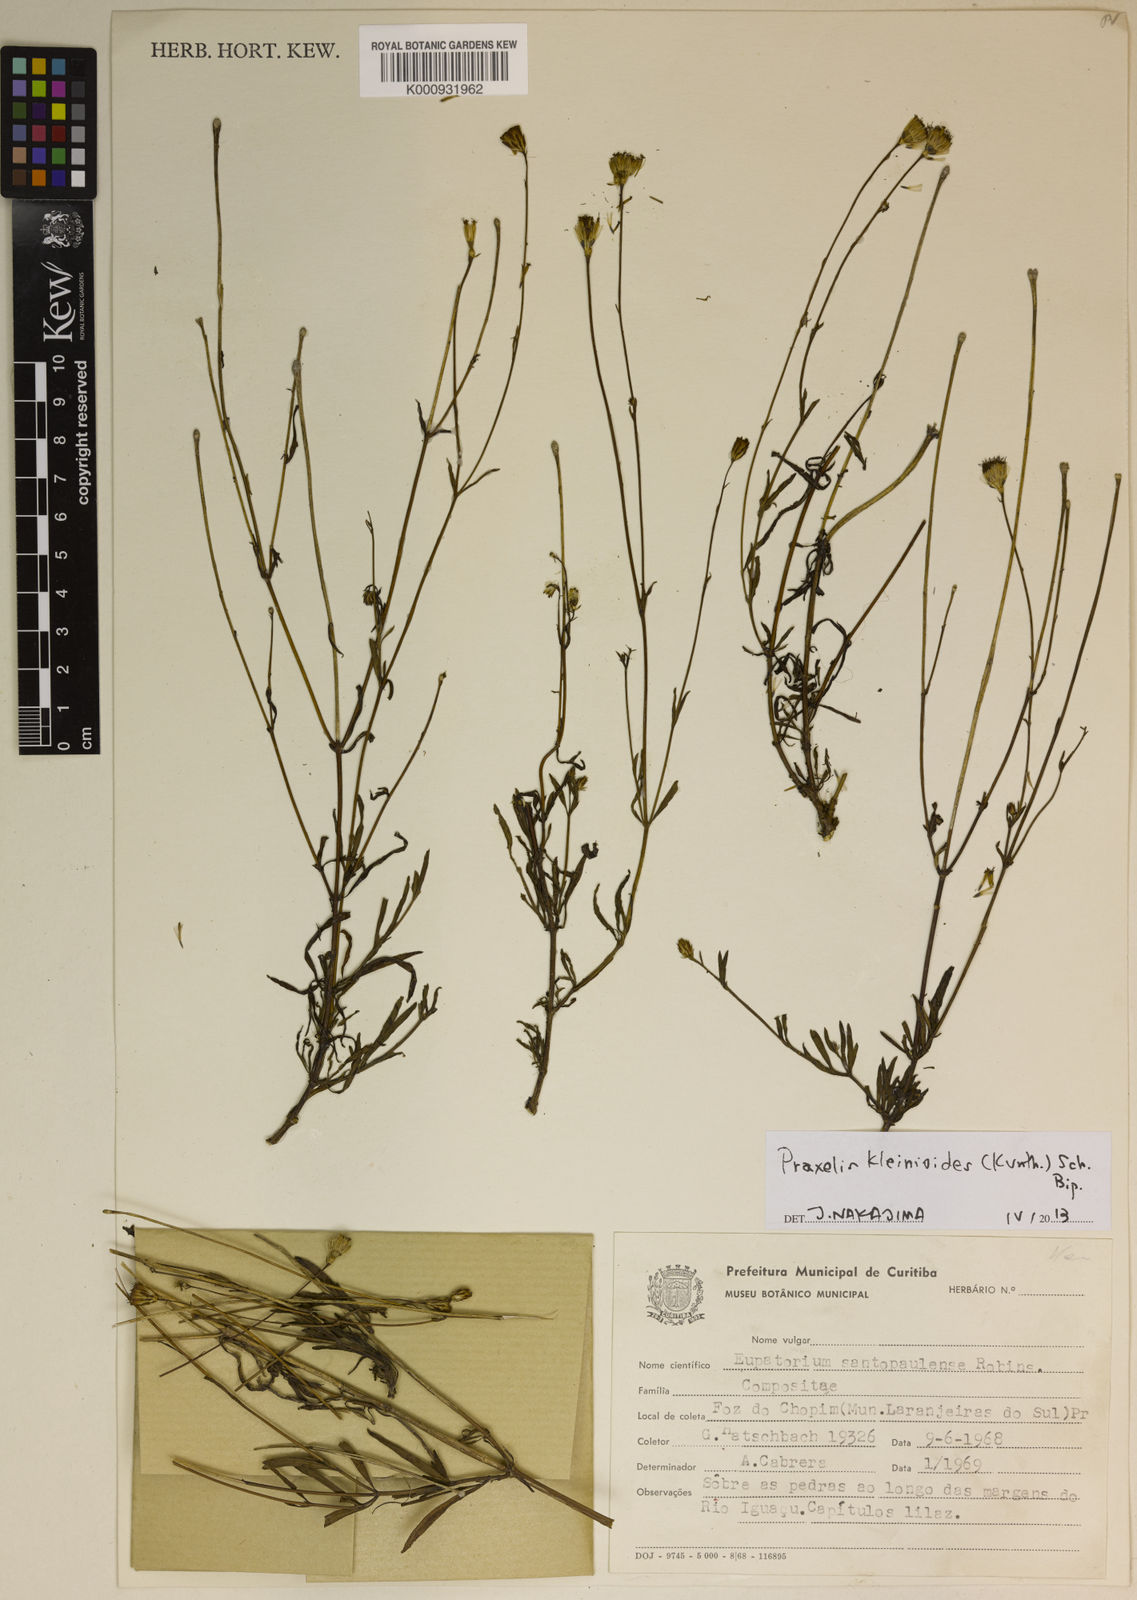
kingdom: Plantae
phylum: Tracheophyta
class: Magnoliopsida
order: Asterales
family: Asteraceae
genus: Praxelis
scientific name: Praxelis kleinioides
